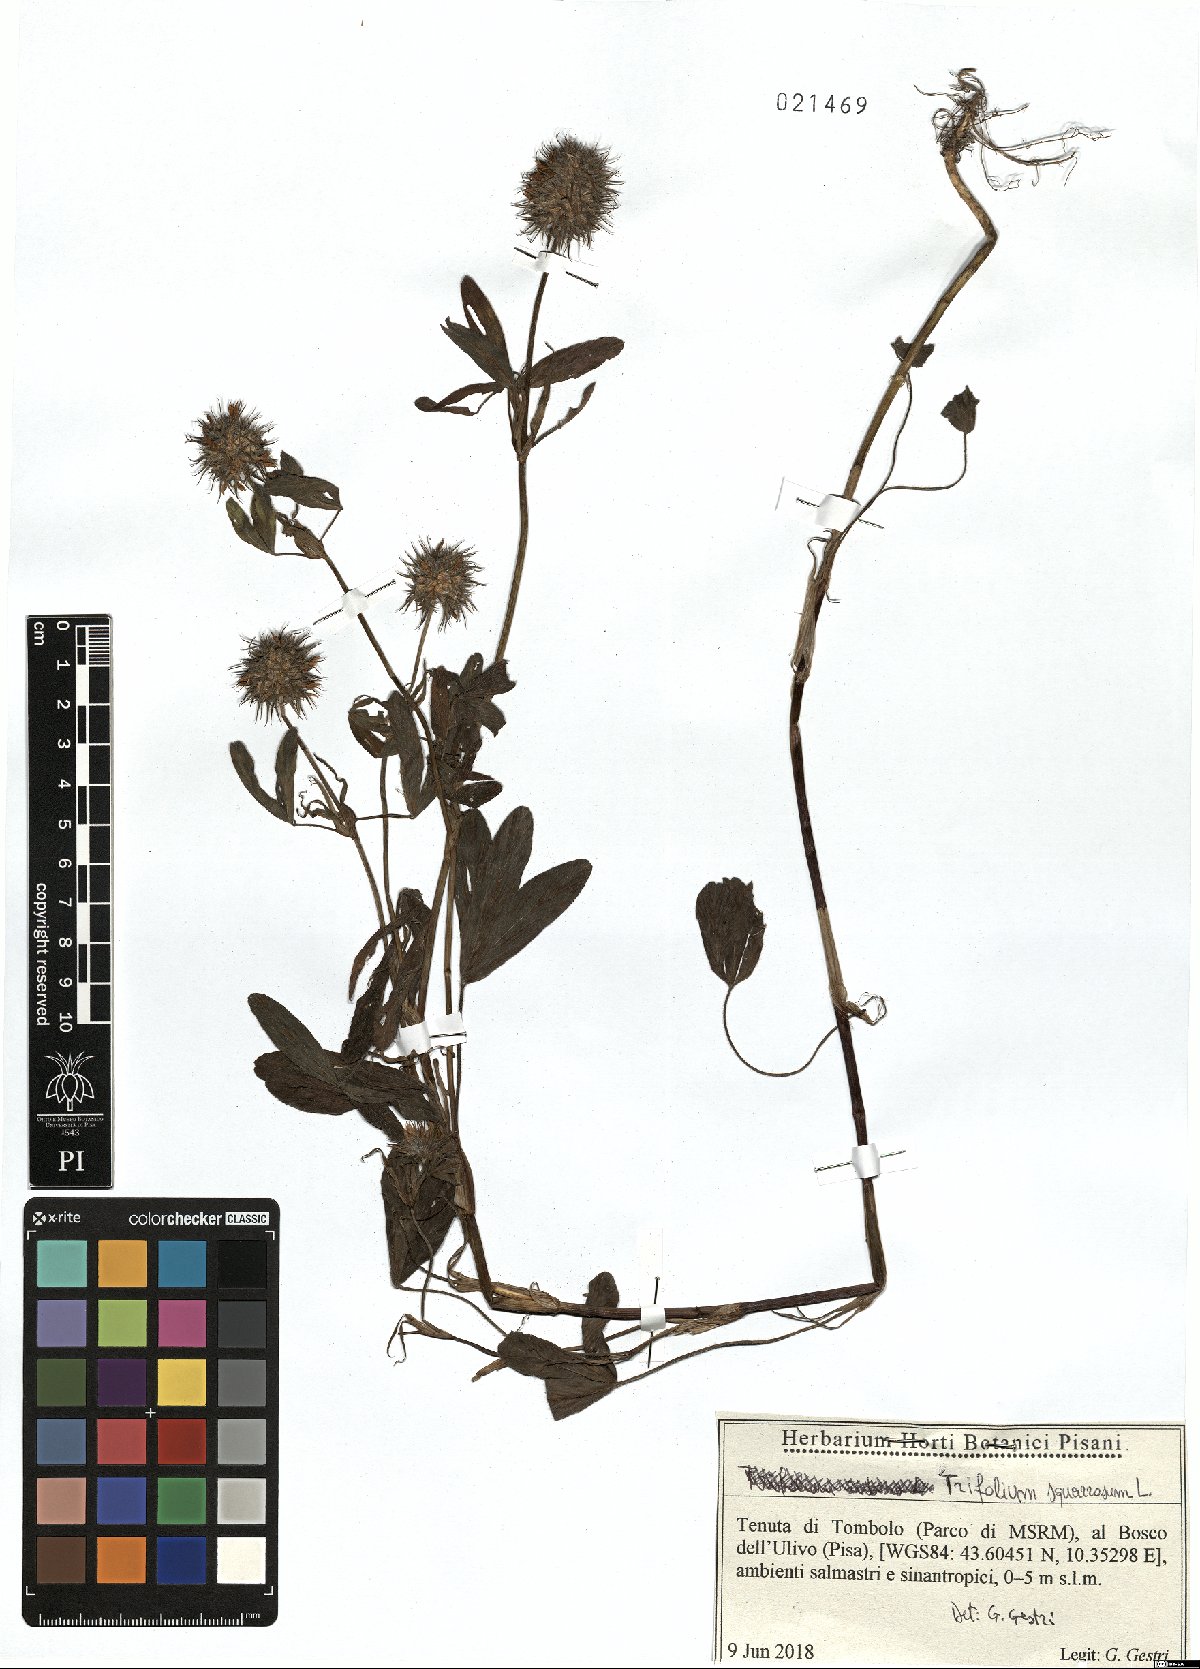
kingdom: Plantae
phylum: Tracheophyta
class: Magnoliopsida
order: Fabales
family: Fabaceae
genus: Trifolium
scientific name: Trifolium squarrosum
